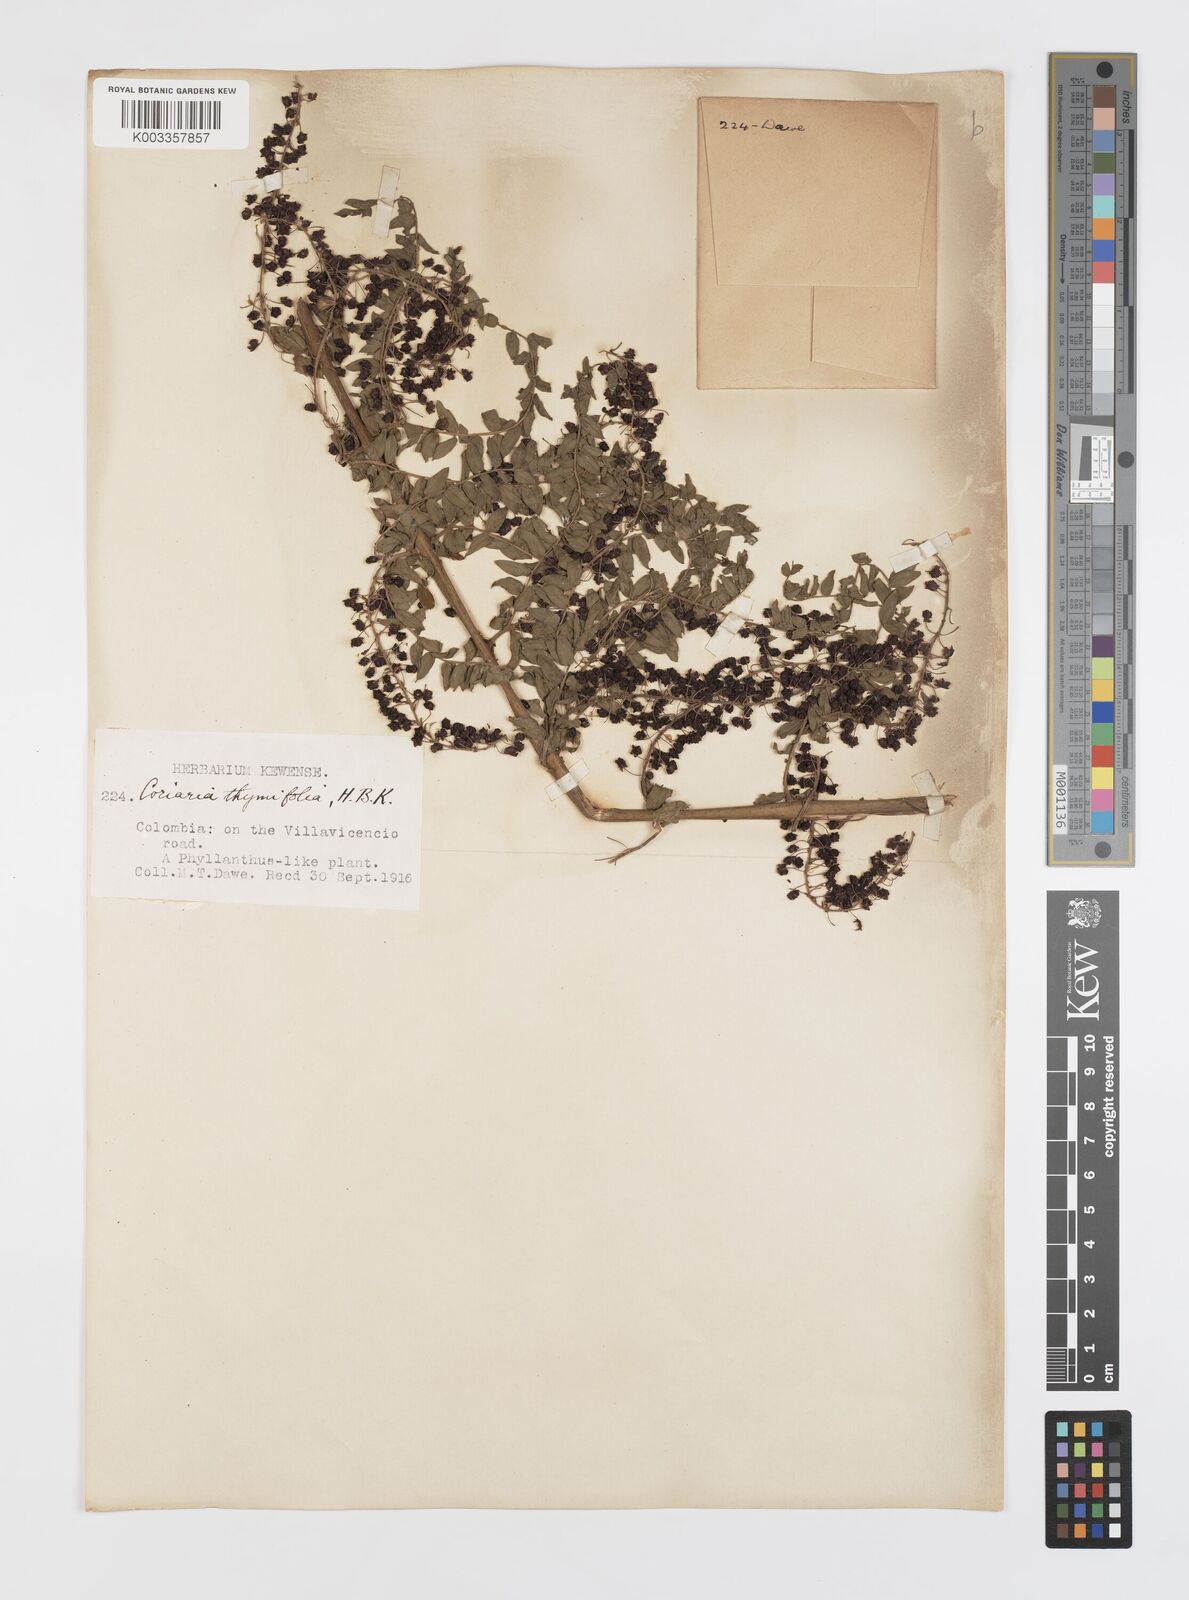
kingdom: Plantae
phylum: Tracheophyta
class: Magnoliopsida
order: Cucurbitales
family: Coriariaceae
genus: Coriaria
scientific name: Coriaria microphylla
